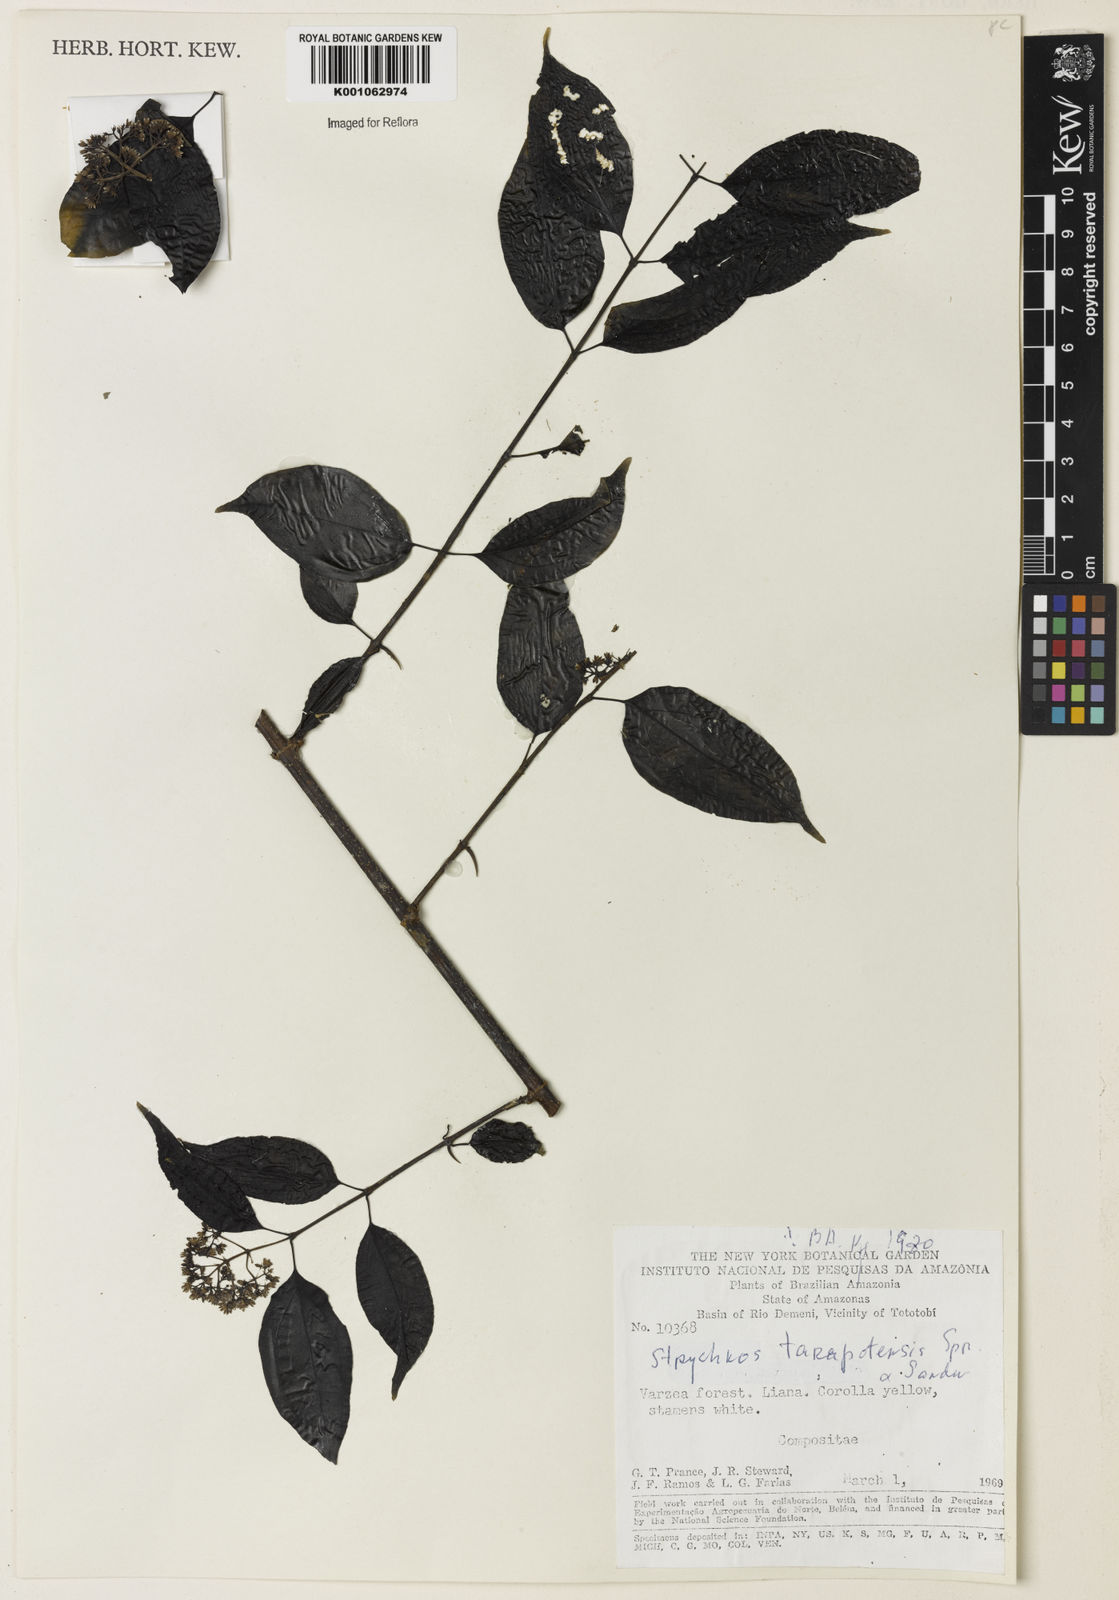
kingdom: Plantae
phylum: Tracheophyta
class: Magnoliopsida
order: Gentianales
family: Loganiaceae
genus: Strychnos
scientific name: Strychnos tarapotensis
